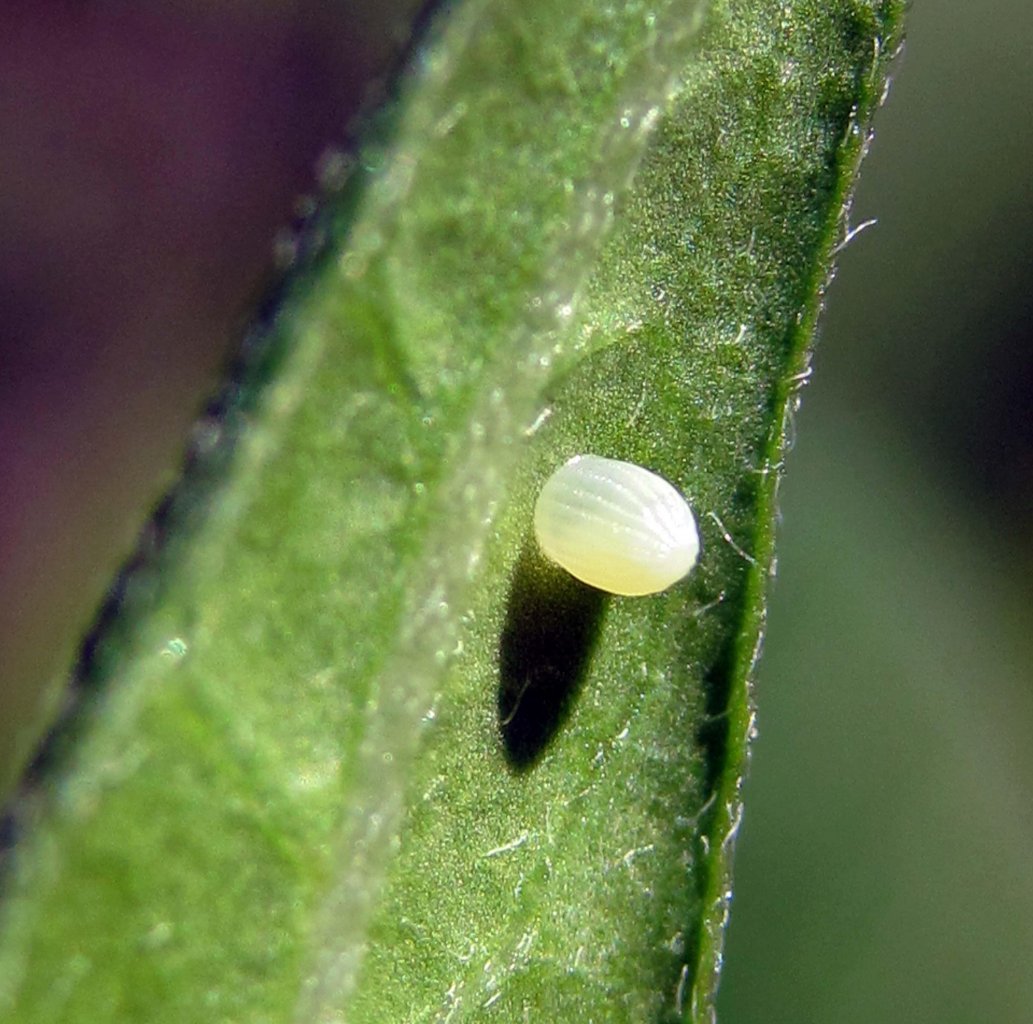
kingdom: Animalia
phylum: Arthropoda
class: Insecta
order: Lepidoptera
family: Nymphalidae
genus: Danaus
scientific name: Danaus plexippus
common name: Monarch
